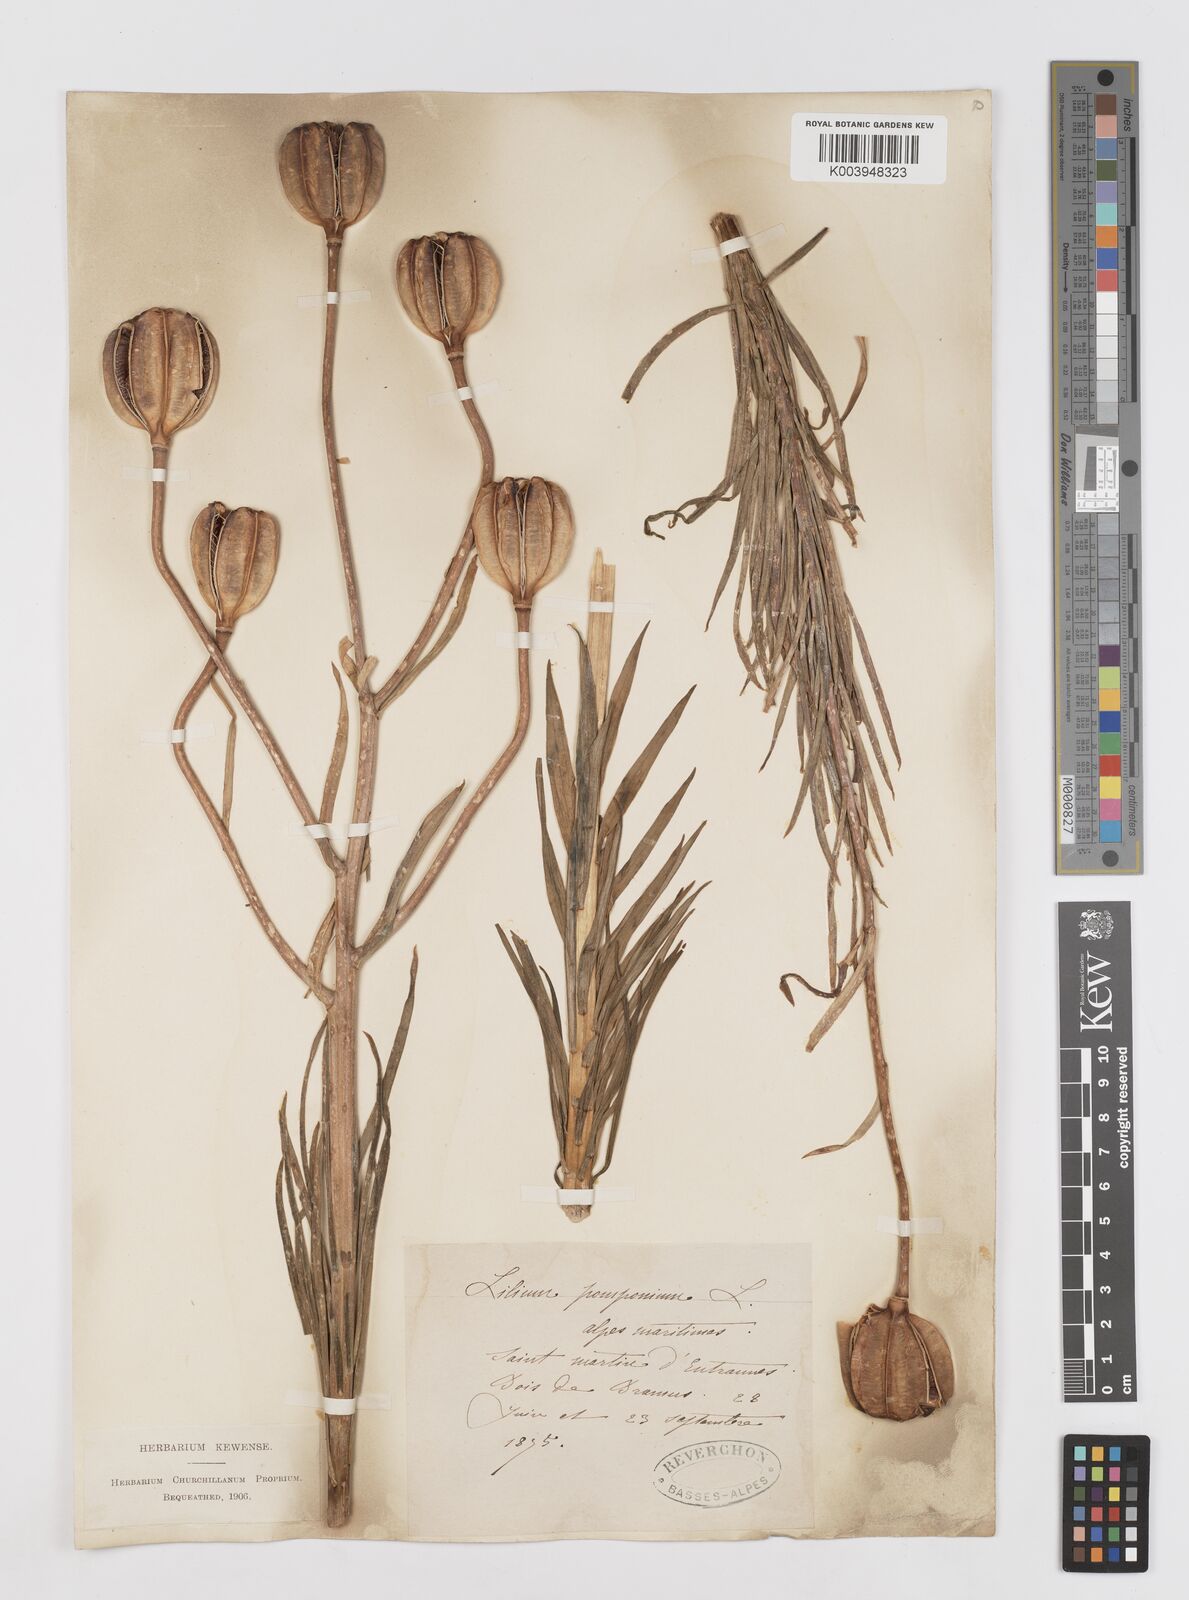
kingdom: Plantae
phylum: Tracheophyta
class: Liliopsida
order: Liliales
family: Liliaceae
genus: Lilium
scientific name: Lilium pomponium
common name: Minor turk's-cap lily
